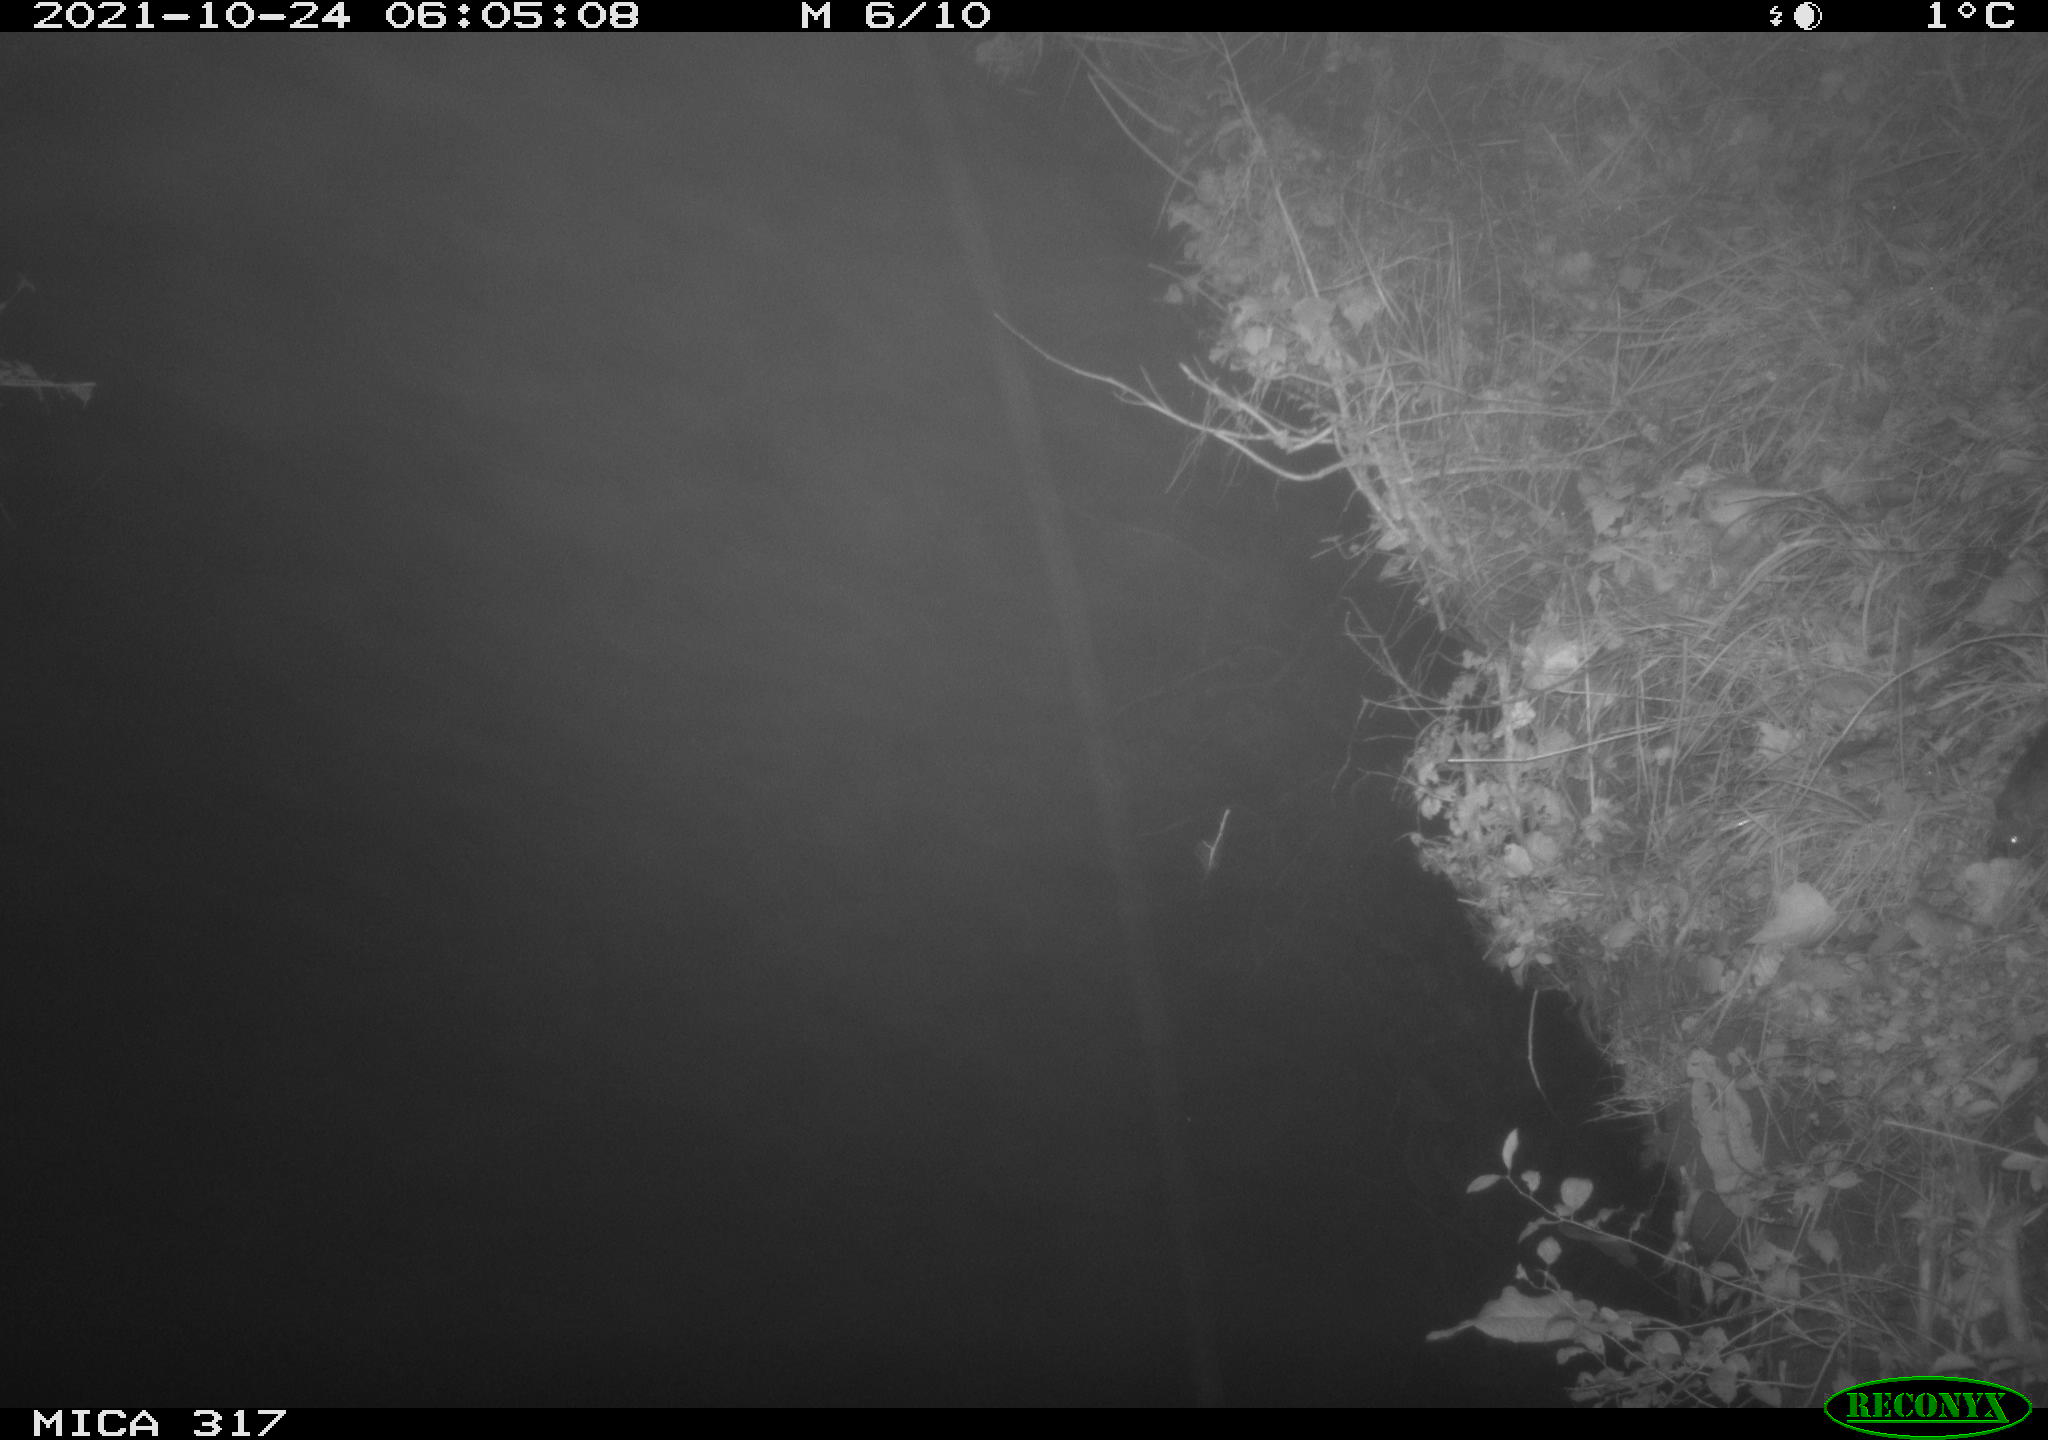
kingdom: Animalia
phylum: Chordata
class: Mammalia
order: Rodentia
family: Muridae
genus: Rattus
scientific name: Rattus norvegicus
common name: Brown rat
